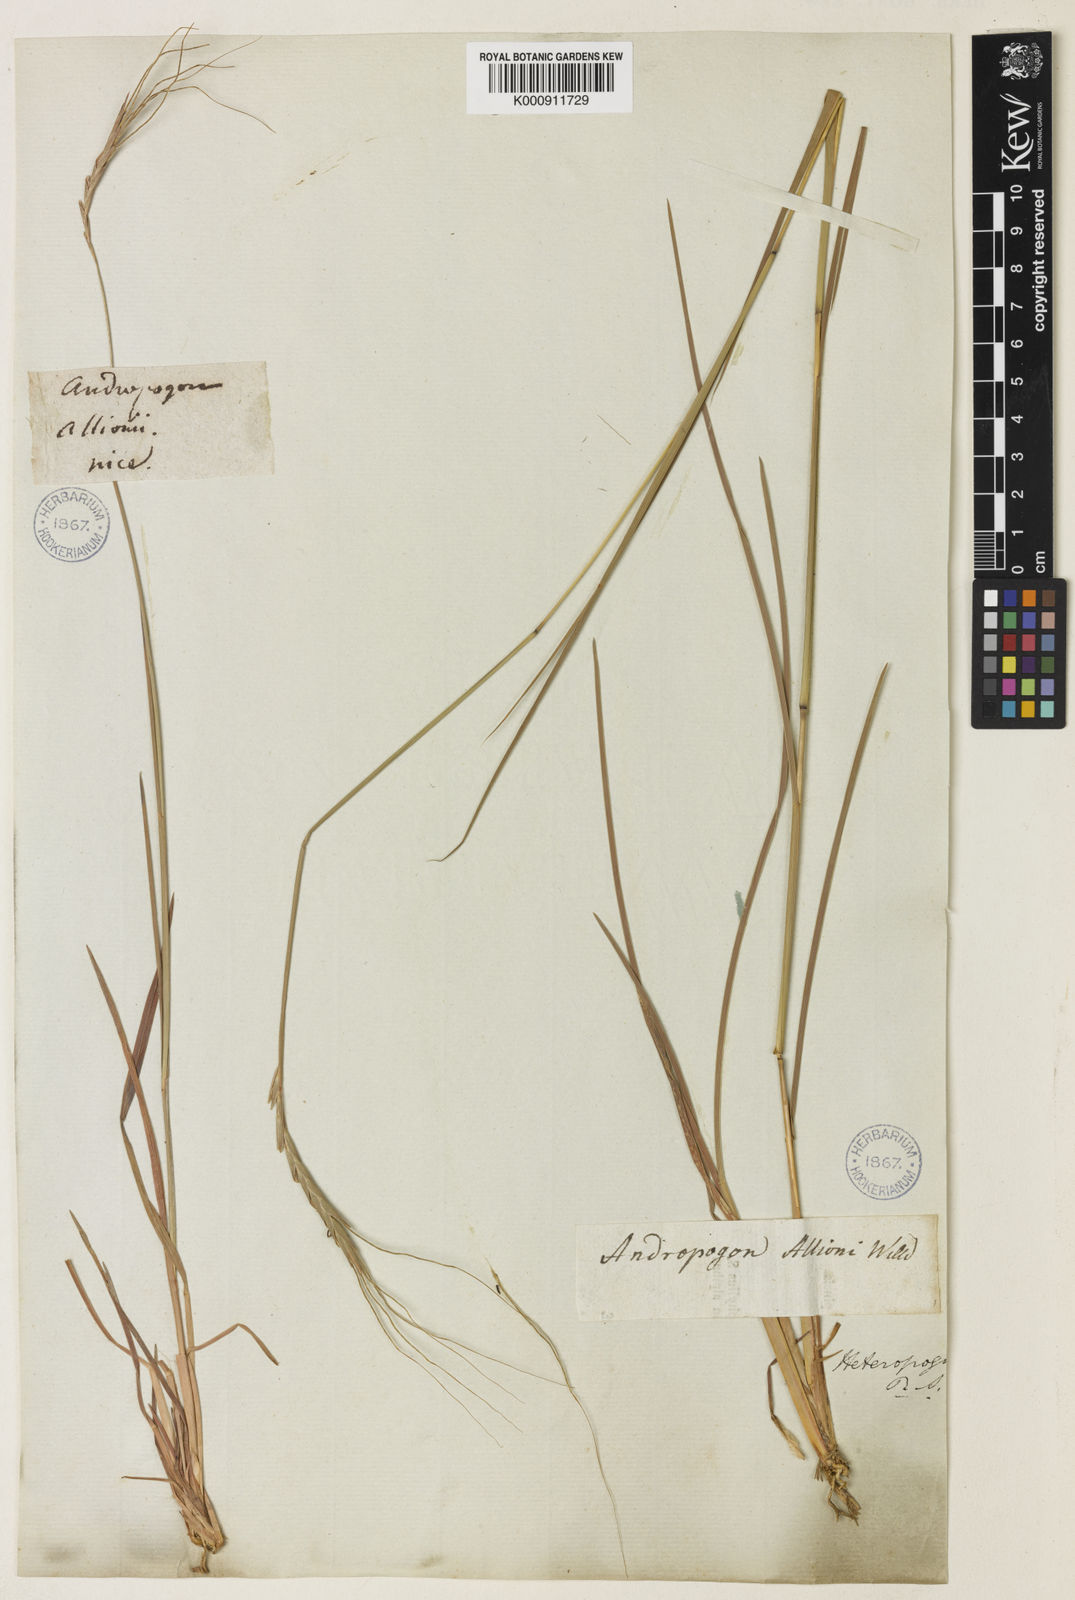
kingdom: Plantae
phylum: Tracheophyta
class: Liliopsida
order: Poales
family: Poaceae
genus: Heteropogon
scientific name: Heteropogon contortus
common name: Tanglehead
